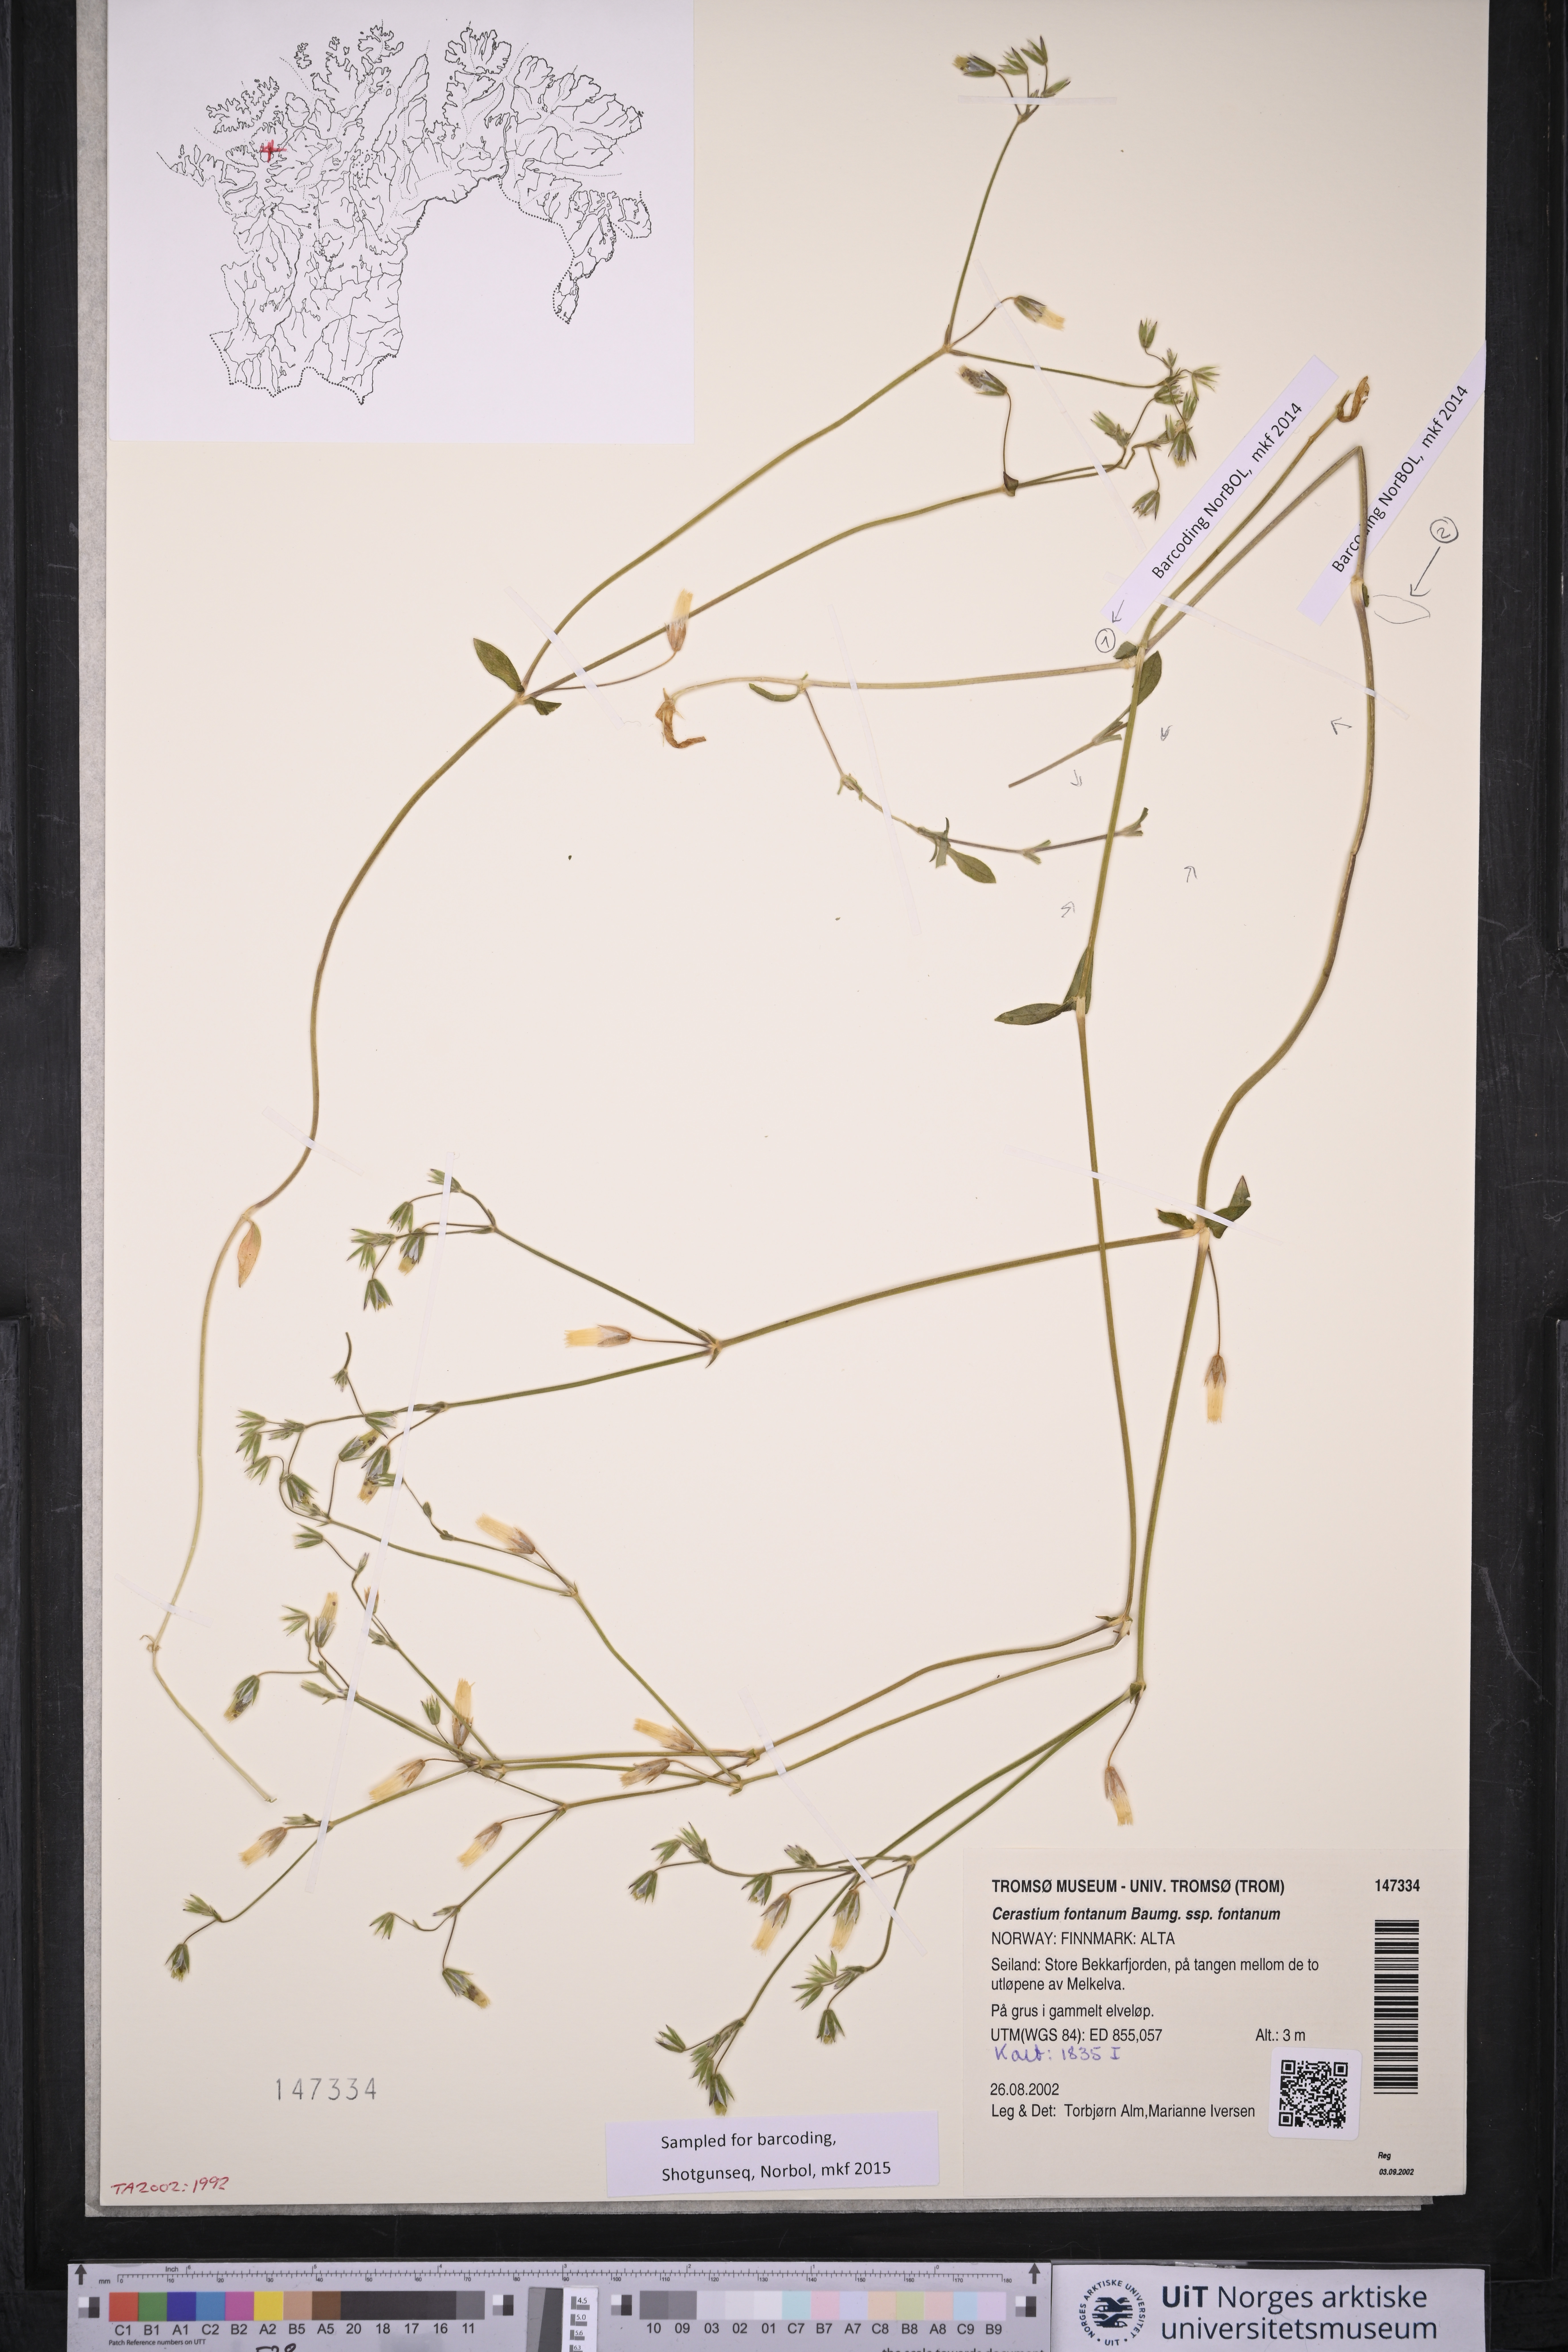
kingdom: Plantae
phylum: Tracheophyta
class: Magnoliopsida
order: Caryophyllales
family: Caryophyllaceae
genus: Cerastium
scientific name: Cerastium fontanum
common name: Common mouse-ear
